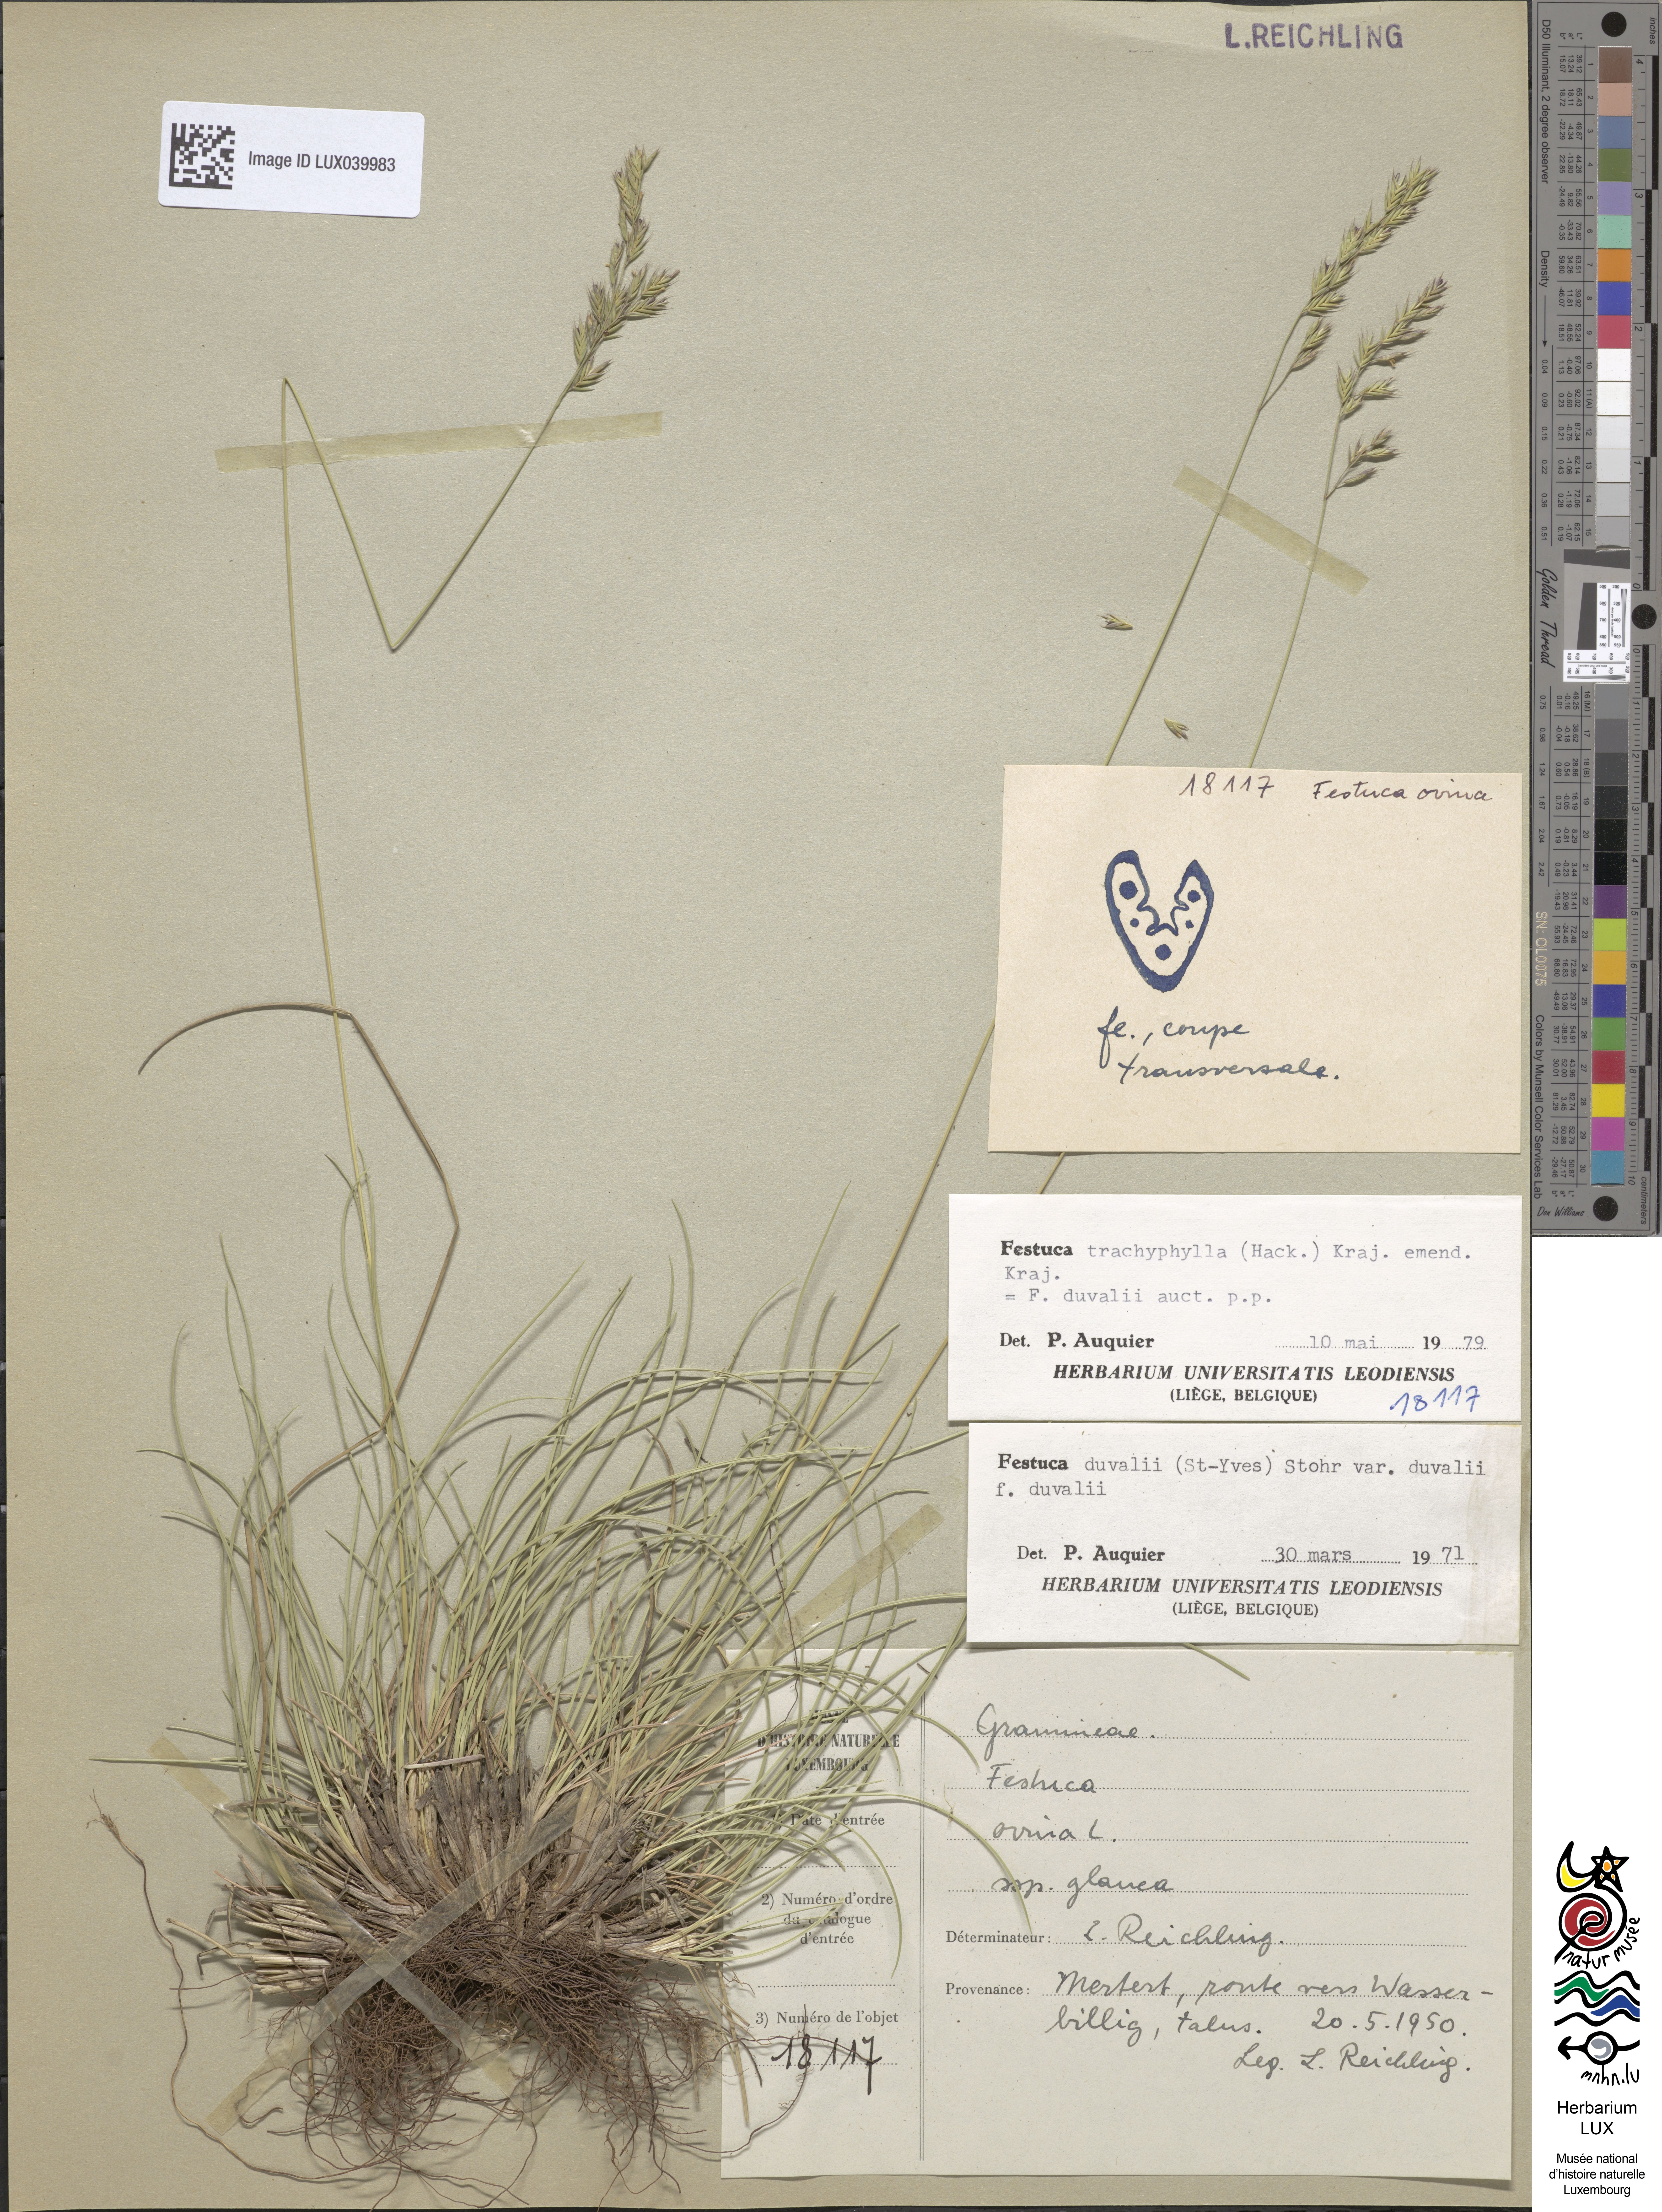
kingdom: Plantae
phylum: Tracheophyta
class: Liliopsida
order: Poales
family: Poaceae
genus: Festuca
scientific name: Festuca arvernensis
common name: Field fescue
